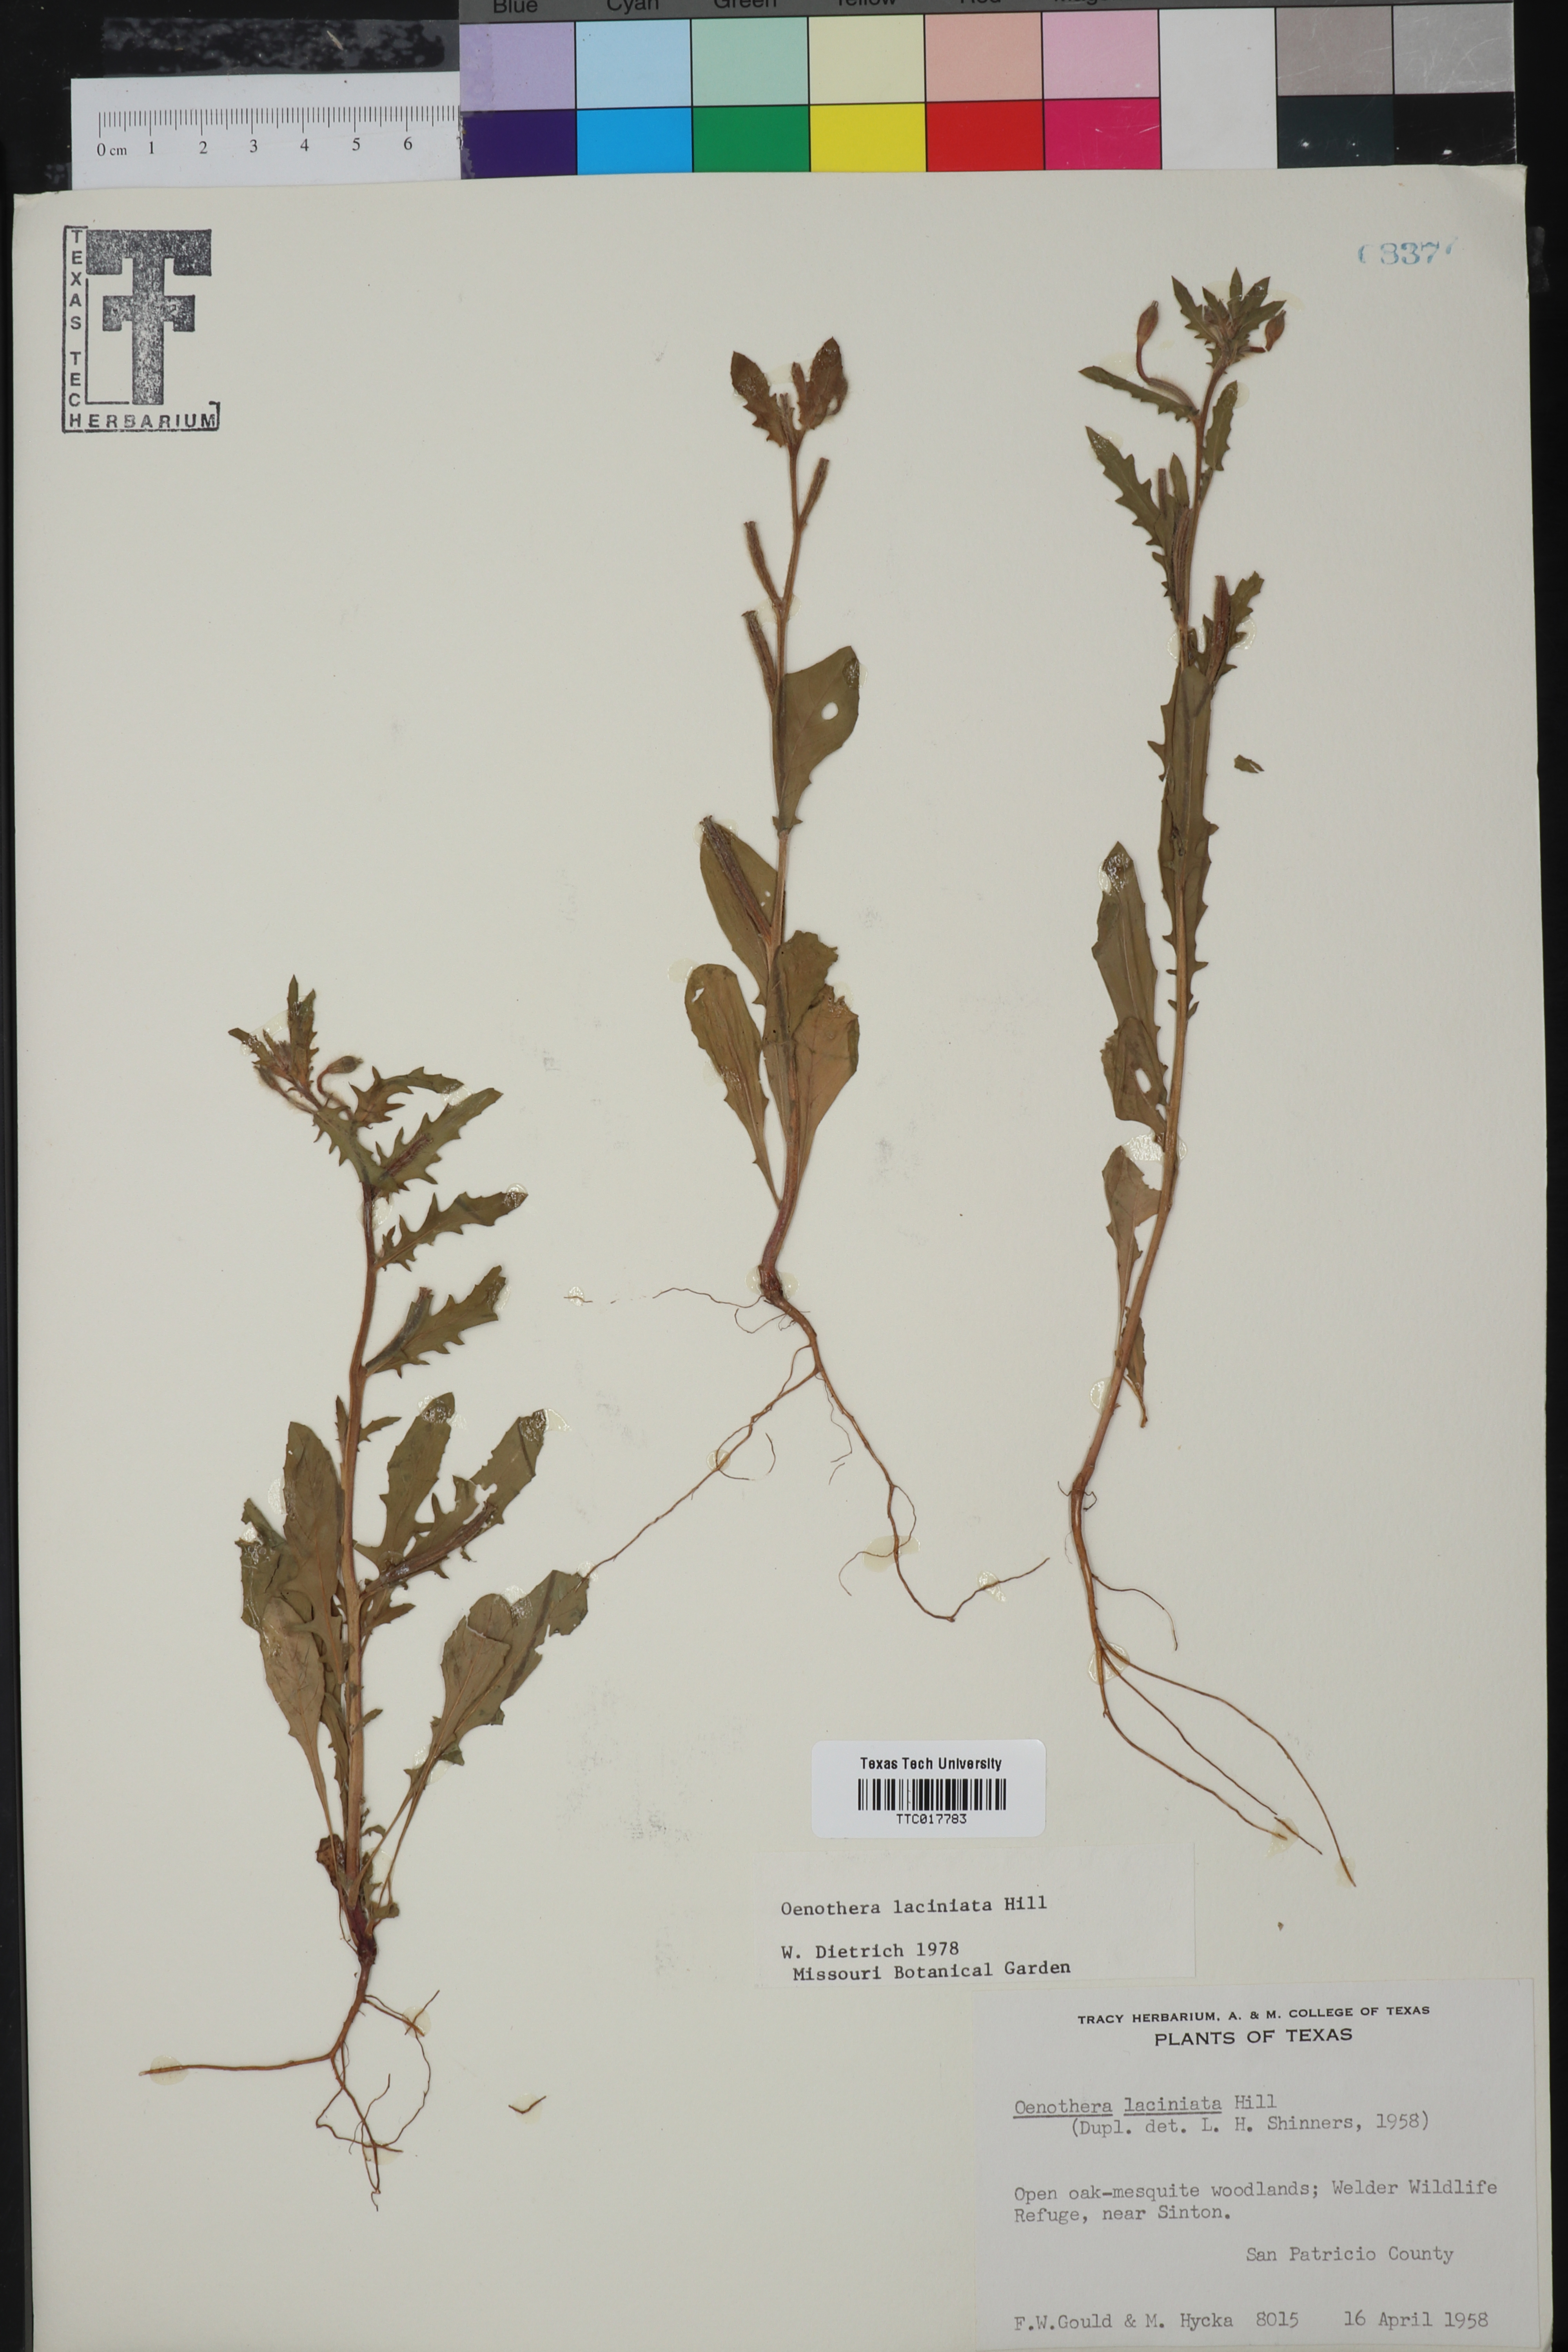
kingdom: Plantae
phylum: Tracheophyta
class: Magnoliopsida
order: Myrtales
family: Onagraceae
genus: Oenothera
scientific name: Oenothera laciniata
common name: Cut-leaved evening-primrose
